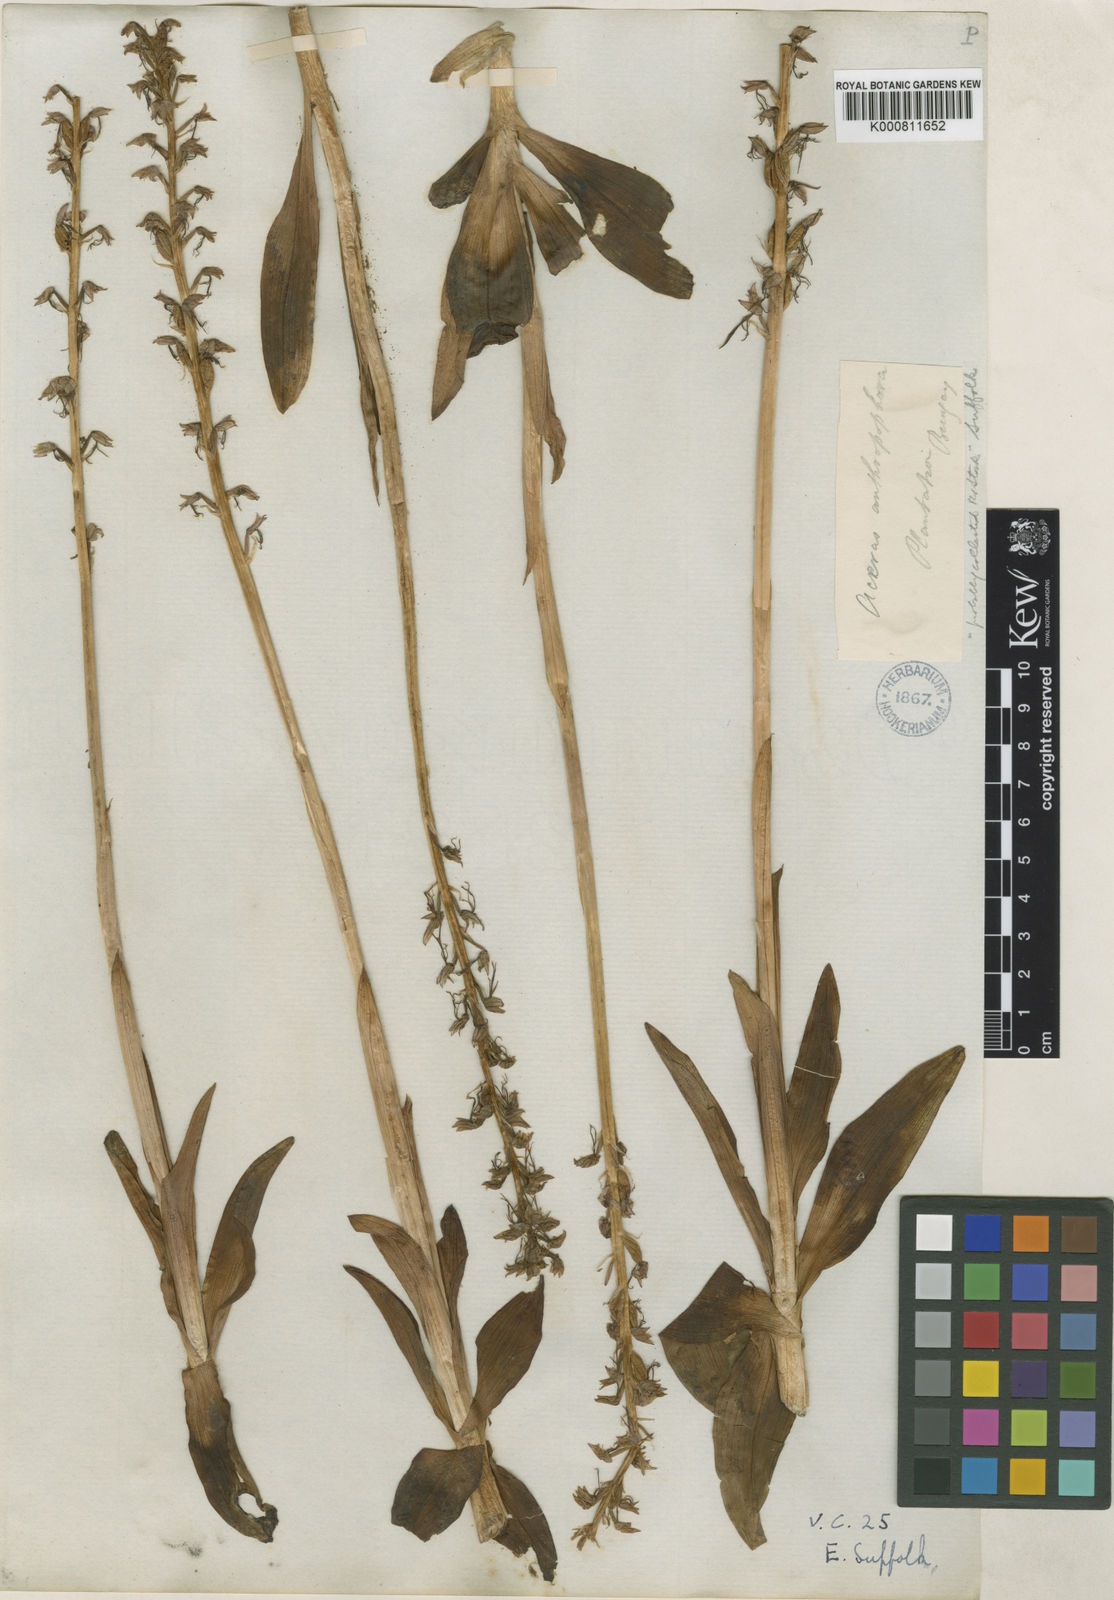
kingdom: Plantae
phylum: Tracheophyta
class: Liliopsida
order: Asparagales
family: Orchidaceae
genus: Orchis
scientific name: Orchis
